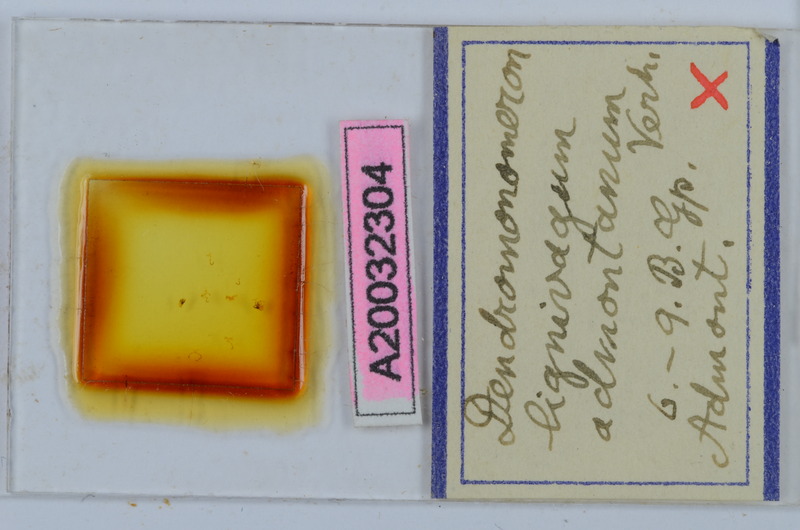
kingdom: Animalia
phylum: Arthropoda
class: Diplopoda
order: Chordeumatida
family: Attemsiidae
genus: Dendromonomeron
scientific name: Dendromonomeron lignivagum
